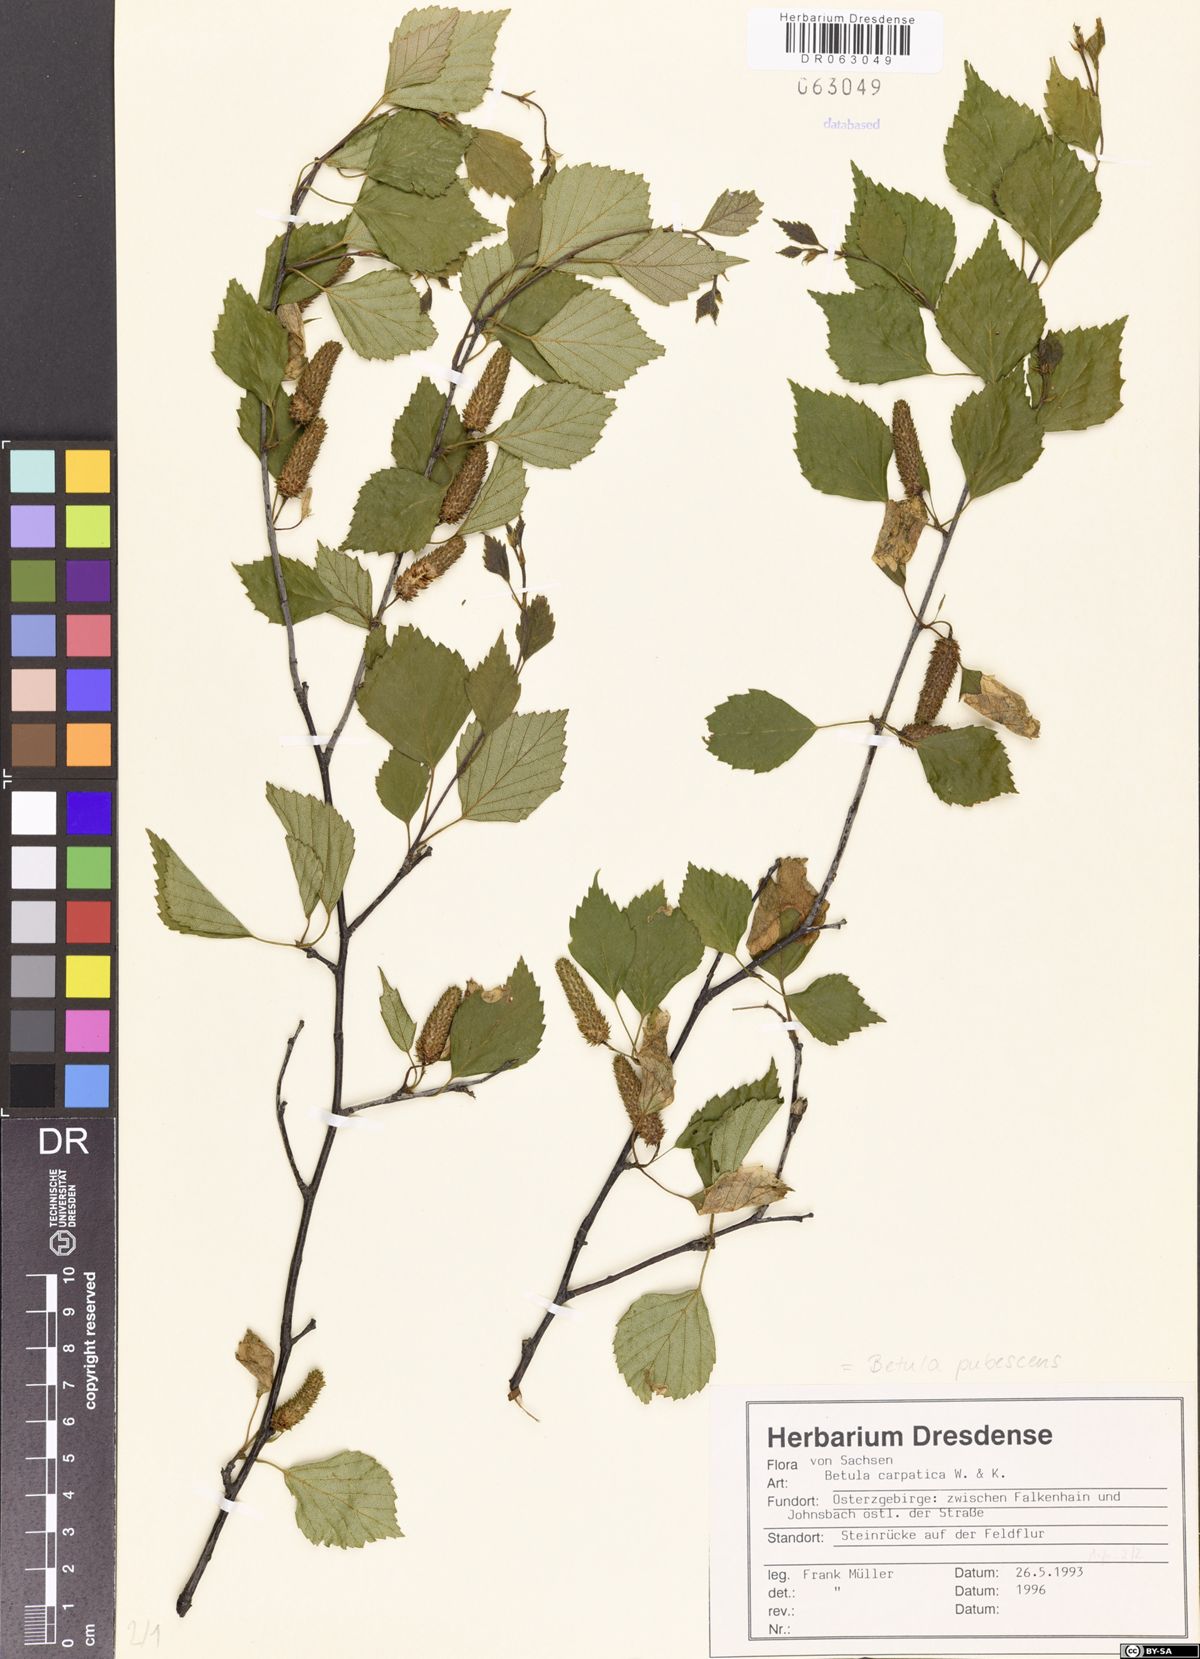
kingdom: Plantae
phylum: Tracheophyta
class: Magnoliopsida
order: Fagales
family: Betulaceae
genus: Betula
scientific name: Betula pubescens
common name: Downy birch
